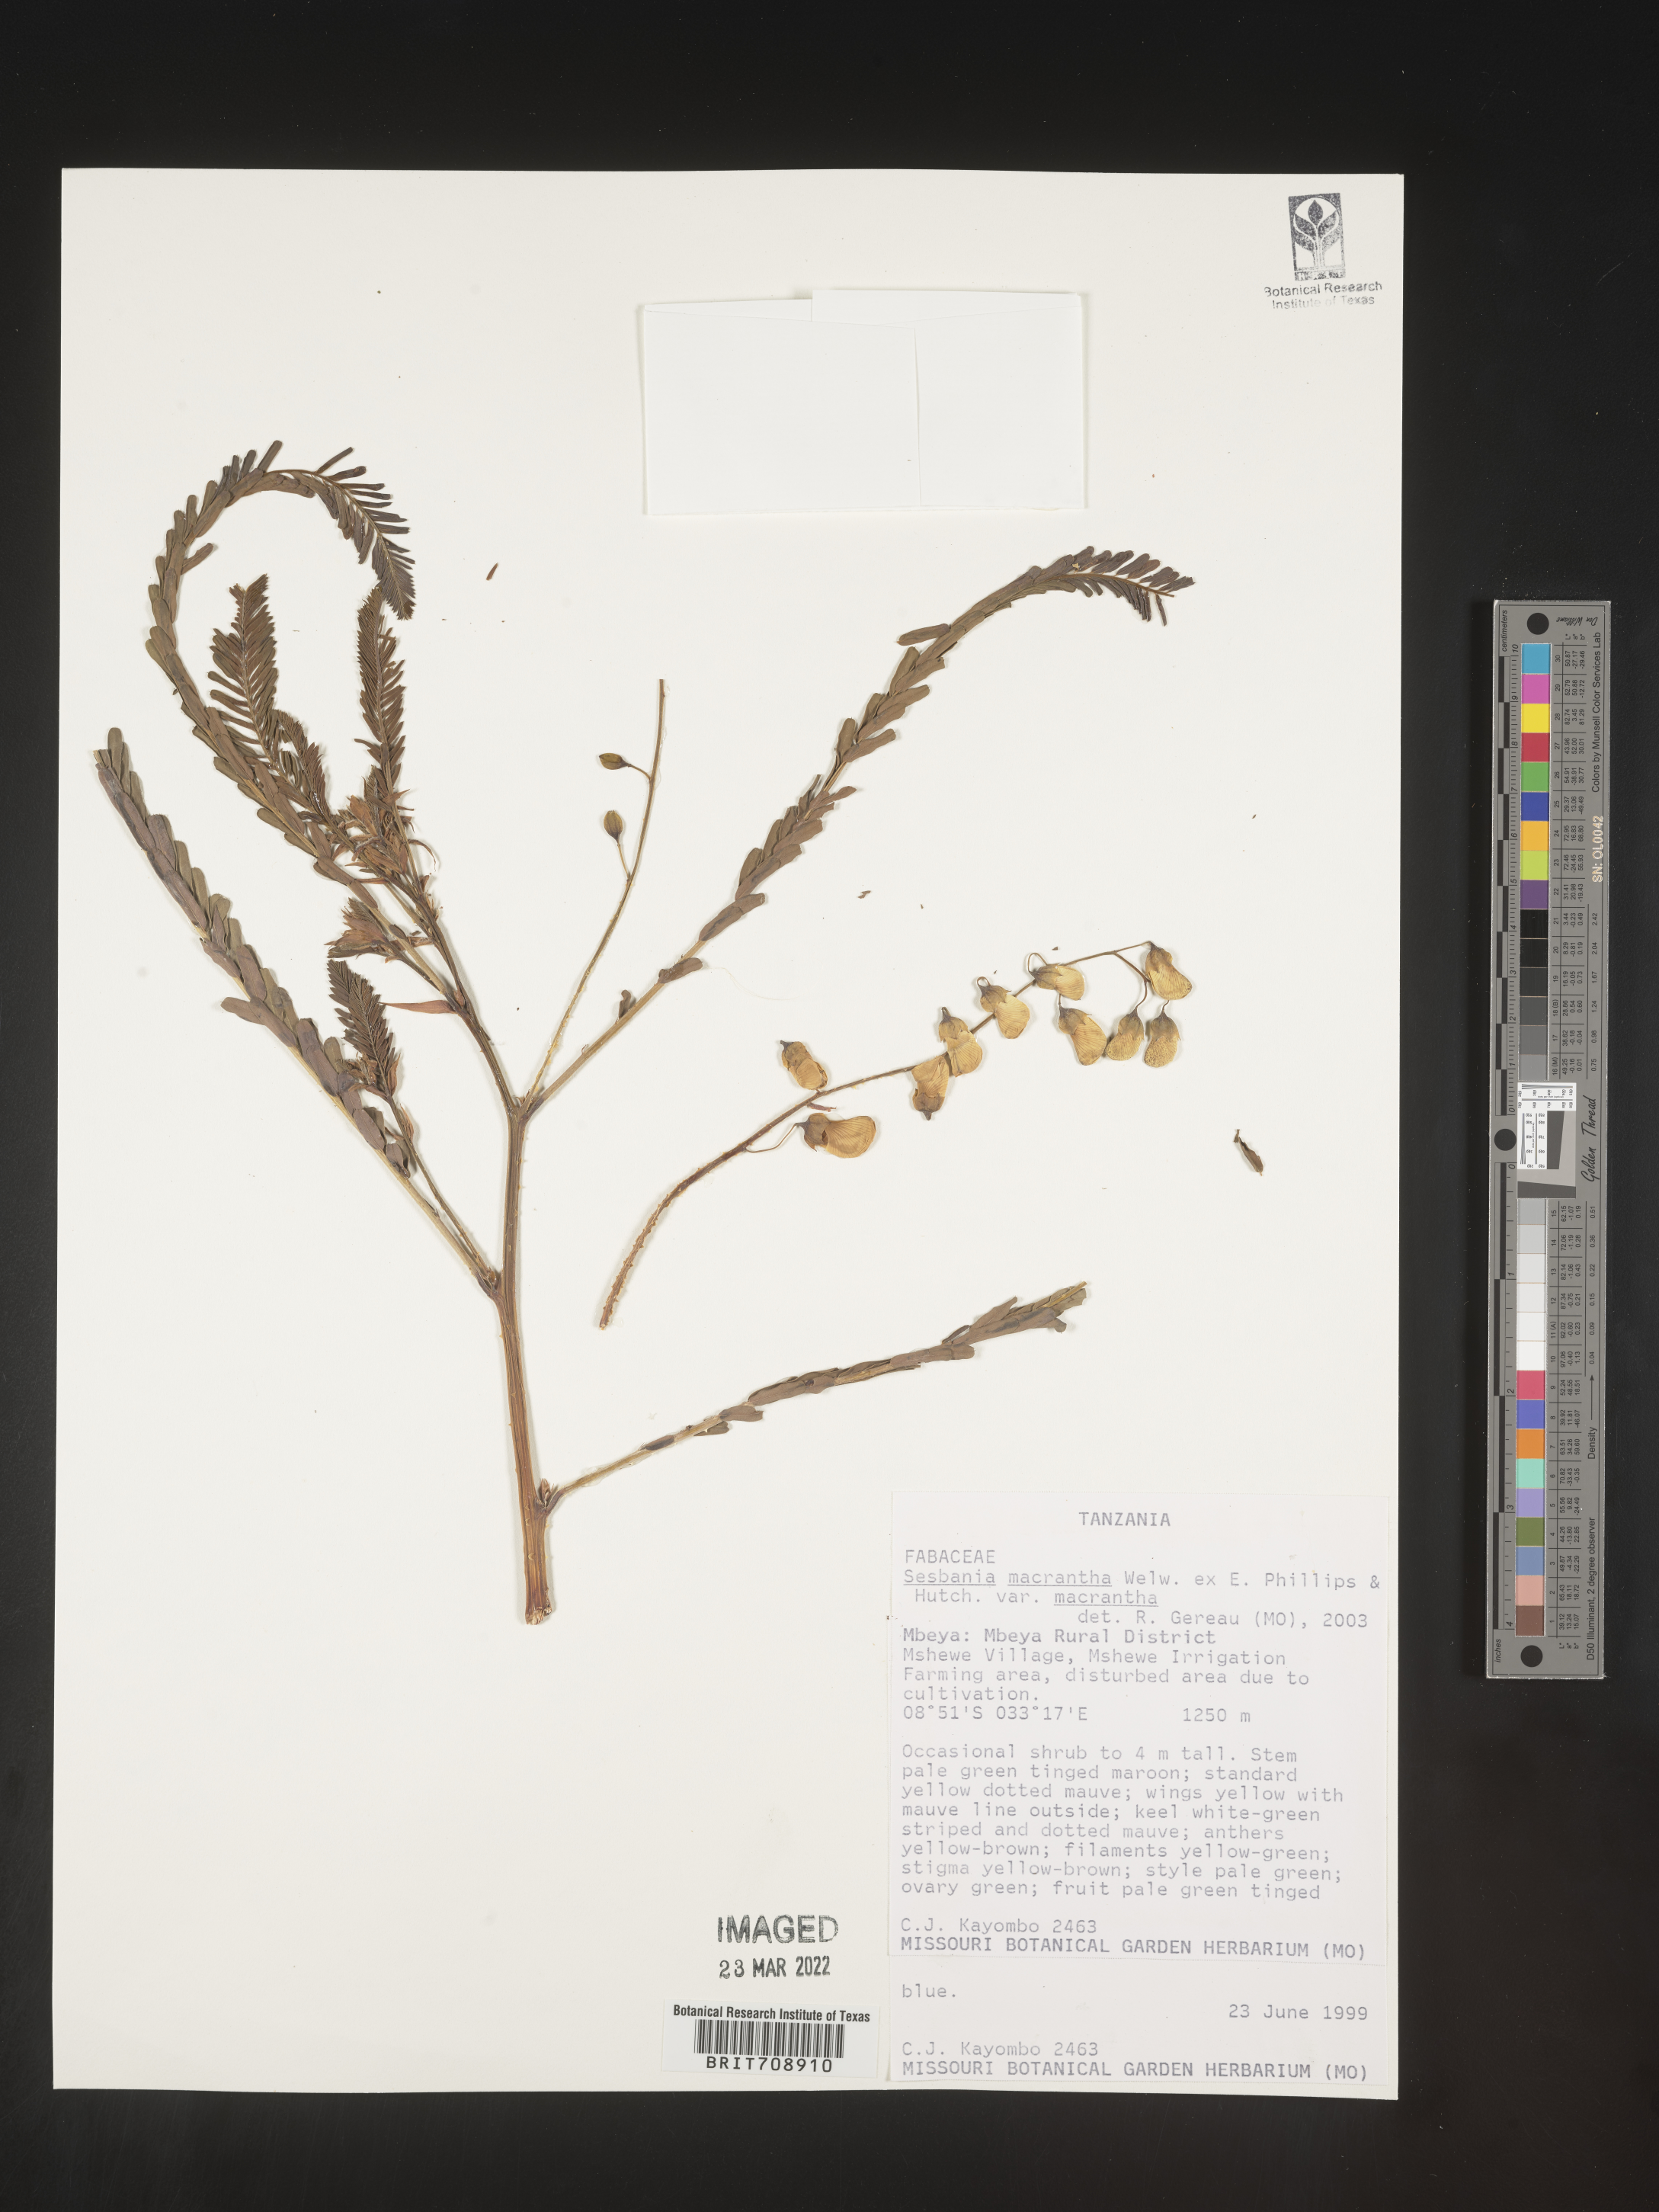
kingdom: Plantae
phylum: Tracheophyta
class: Magnoliopsida
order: Fabales
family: Fabaceae
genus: Sesbania
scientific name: Sesbania
